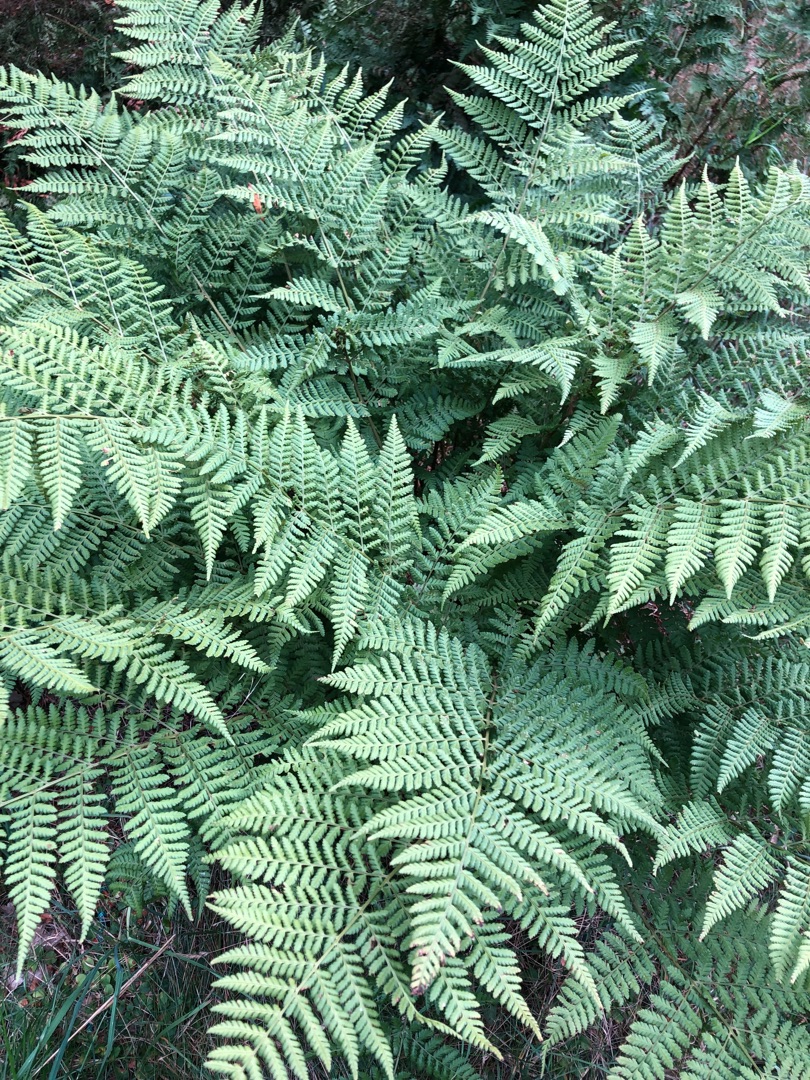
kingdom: Plantae
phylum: Tracheophyta
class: Polypodiopsida
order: Polypodiales
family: Athyriaceae
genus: Athyrium
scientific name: Athyrium filix-femina
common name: Fjerbregne
